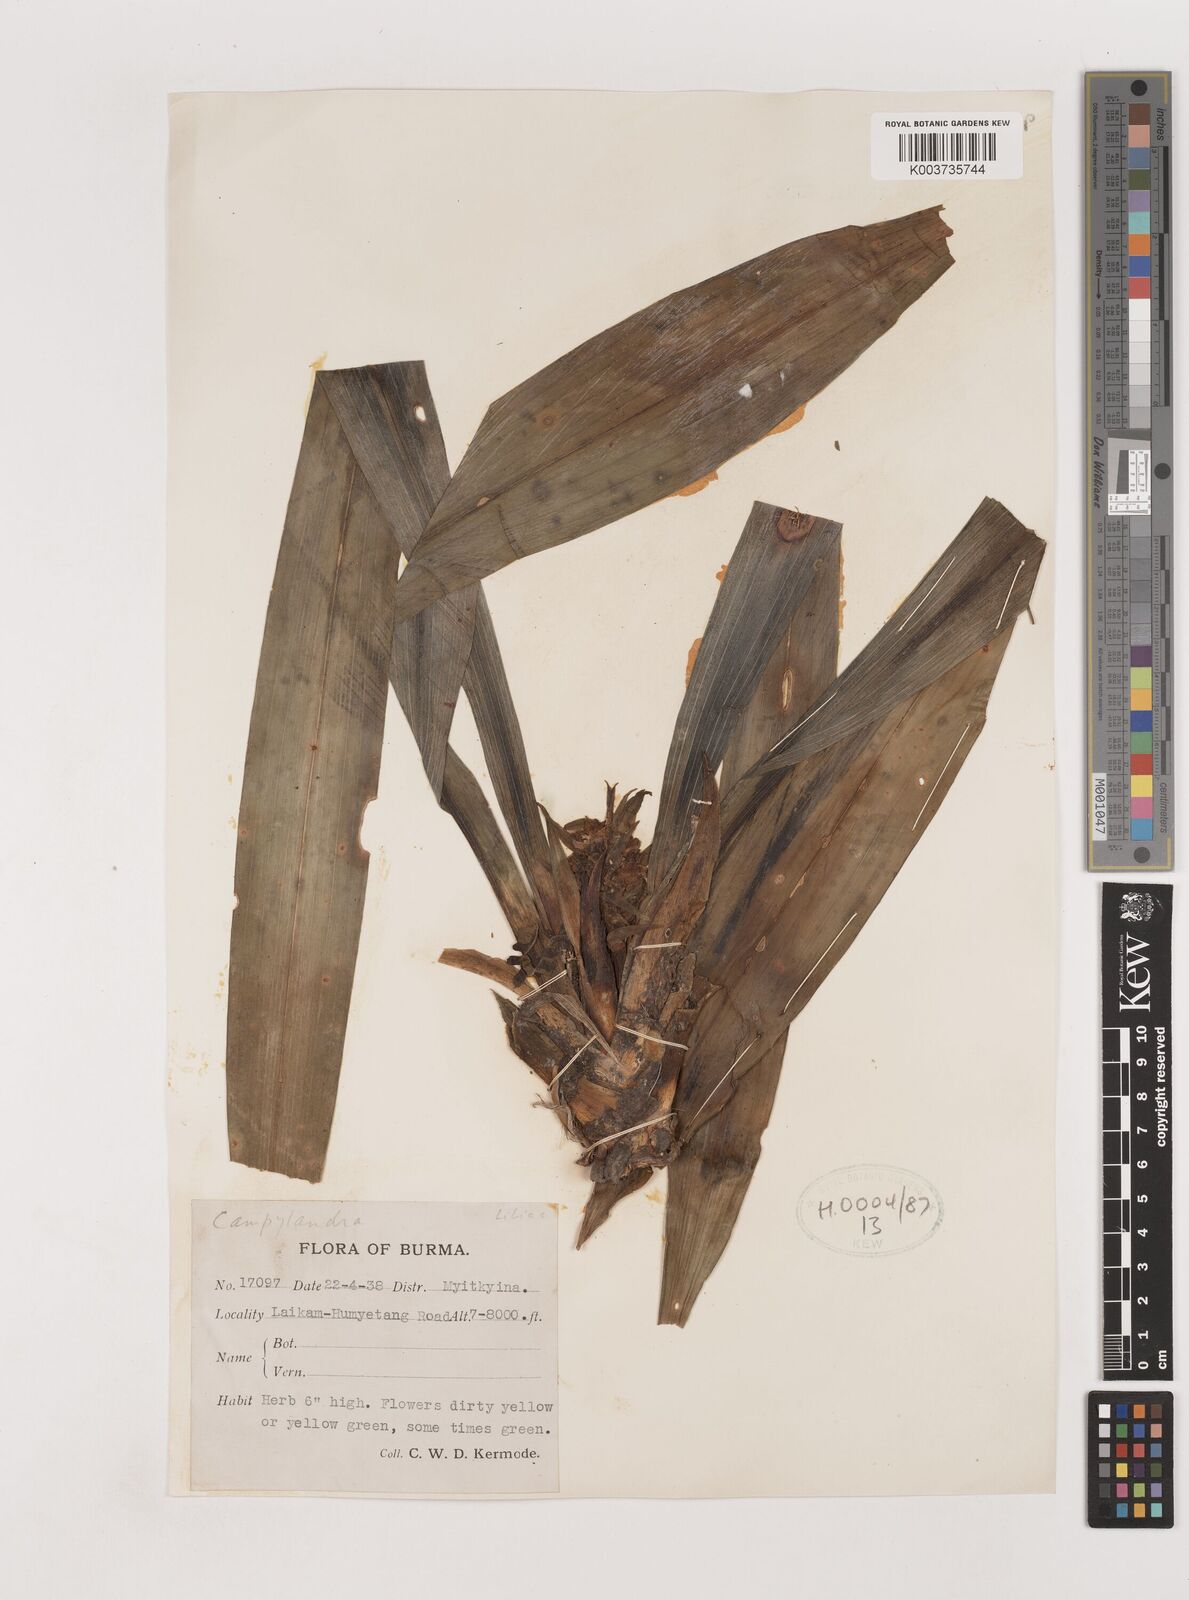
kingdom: Plantae
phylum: Tracheophyta
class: Liliopsida
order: Asparagales
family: Asparagaceae
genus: Tupistra
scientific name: Tupistra
